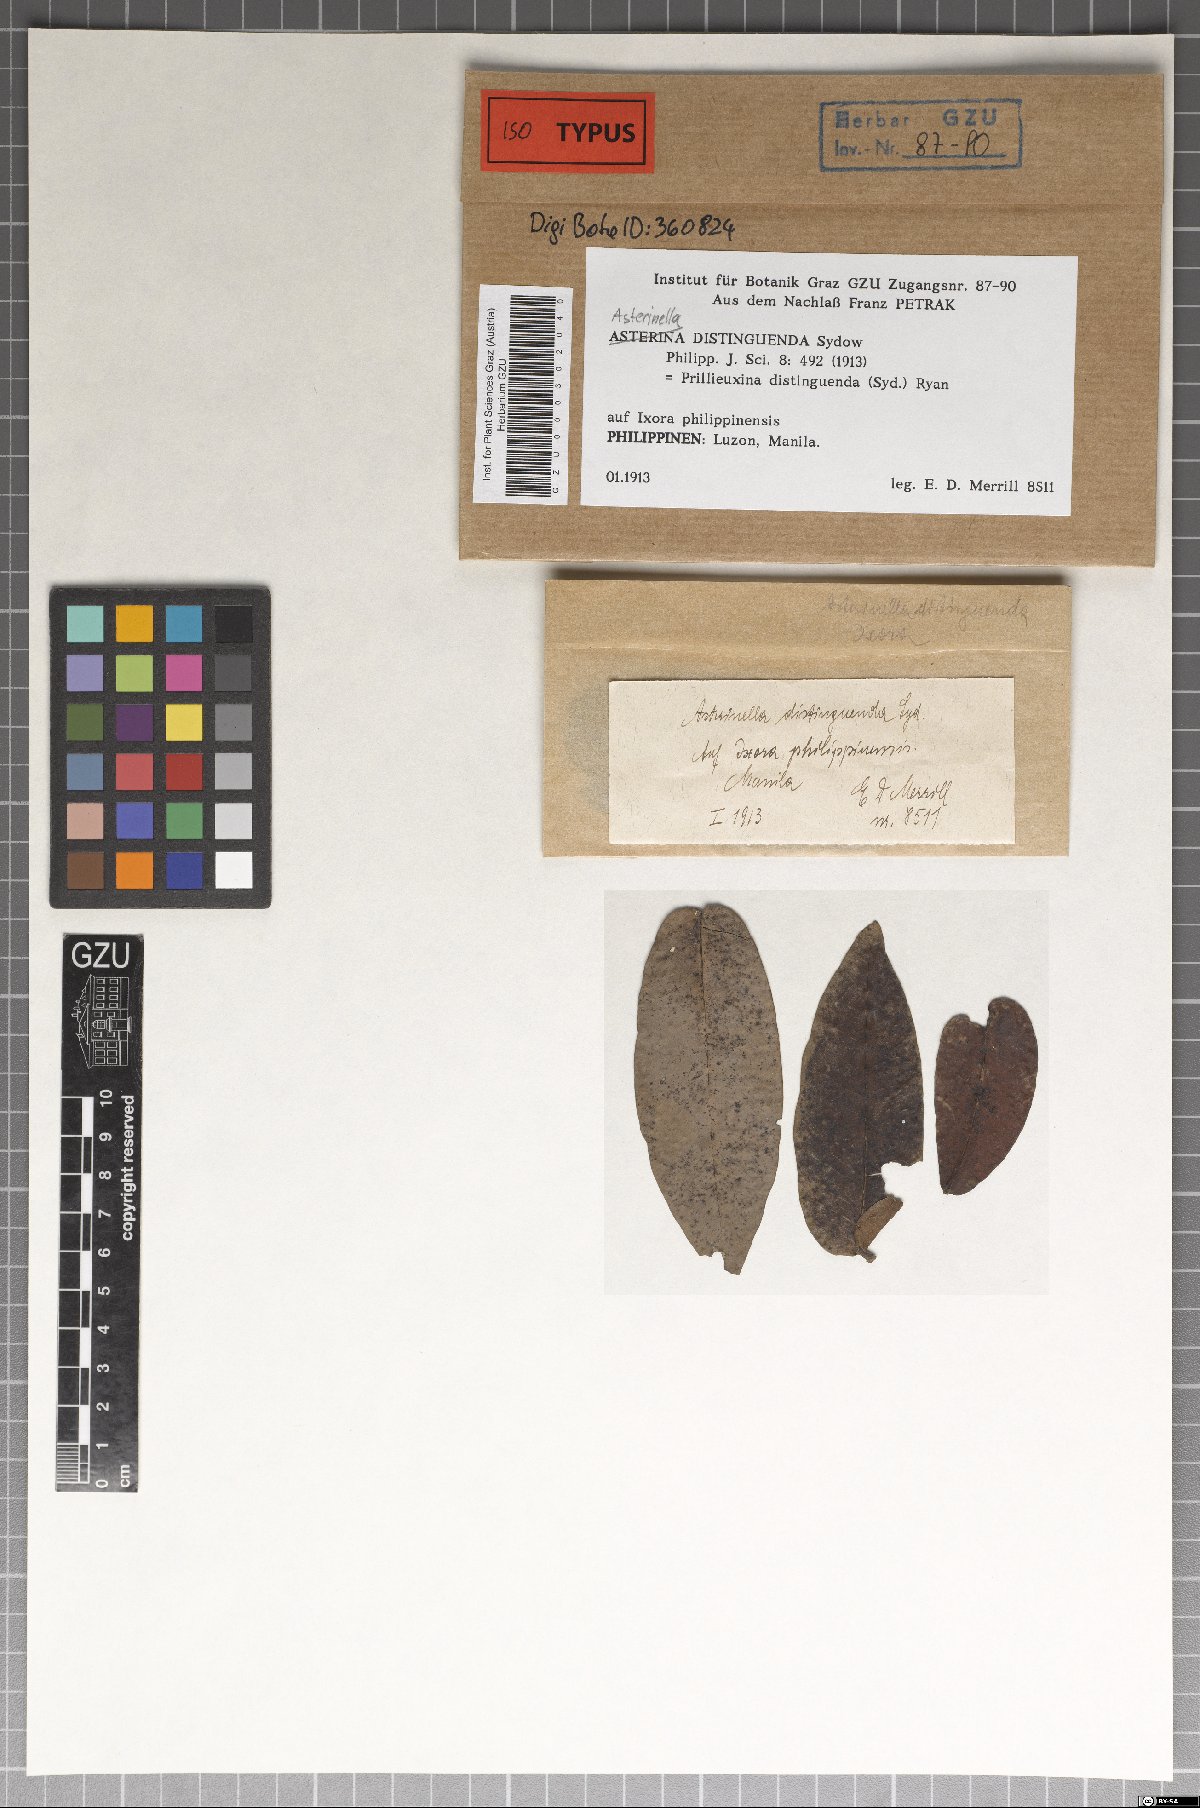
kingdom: Fungi
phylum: Ascomycota
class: Dothideomycetes
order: Asterinales
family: Asterinaceae
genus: Prillieuxina
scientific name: Prillieuxina distinguenda
